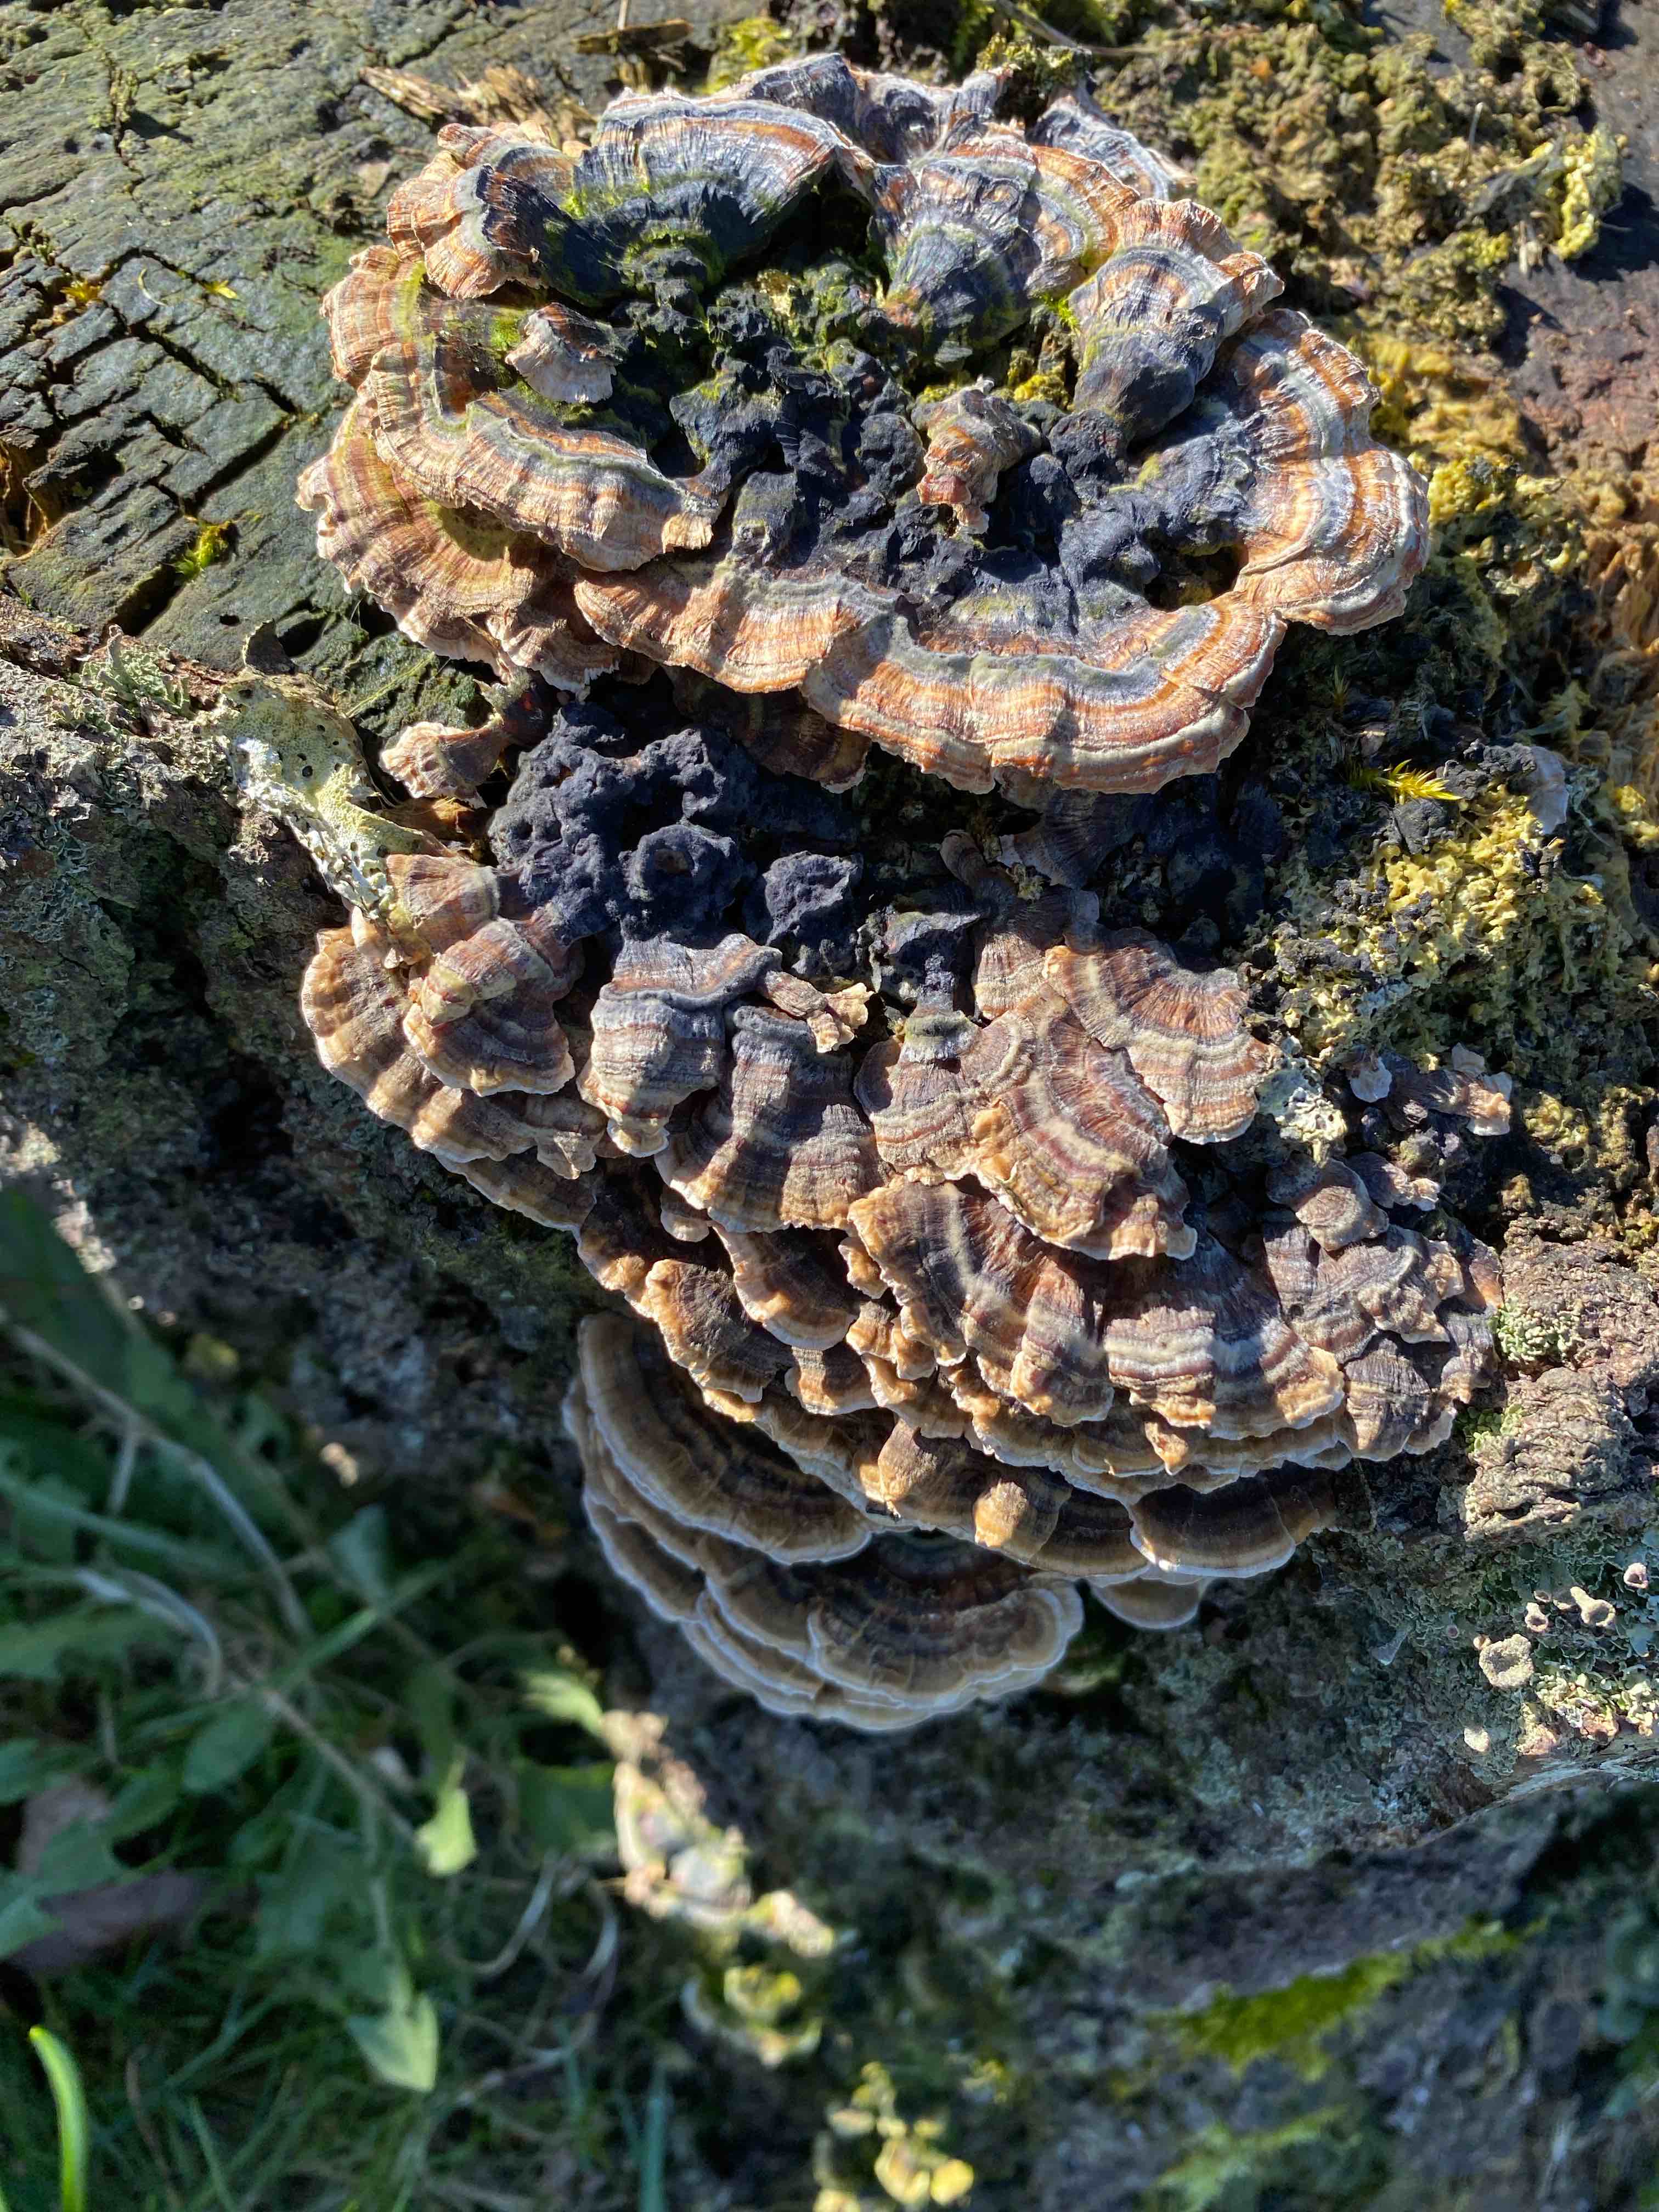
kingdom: Fungi
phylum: Basidiomycota
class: Agaricomycetes
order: Polyporales
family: Polyporaceae
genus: Trametes
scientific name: Trametes versicolor
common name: broget læderporesvamp
